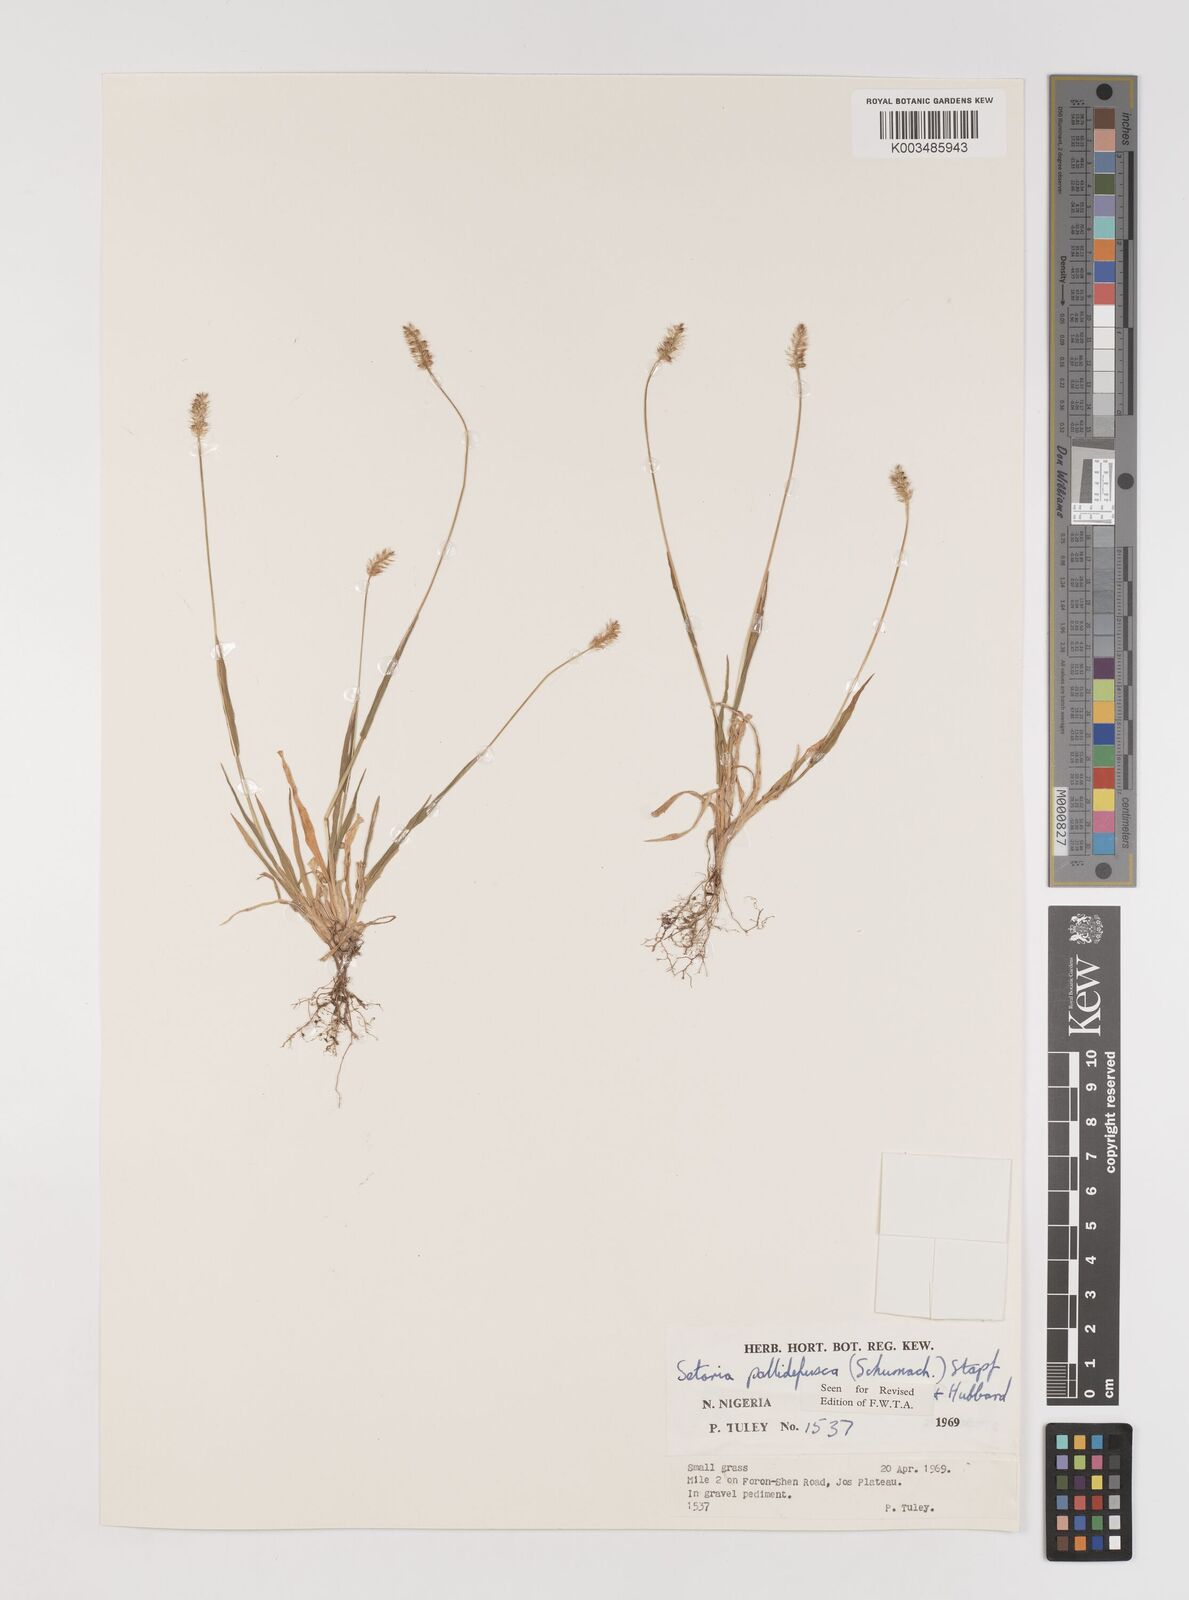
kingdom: Plantae
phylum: Tracheophyta
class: Liliopsida
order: Poales
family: Poaceae
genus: Setaria
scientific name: Setaria pumila
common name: Yellow bristle-grass
